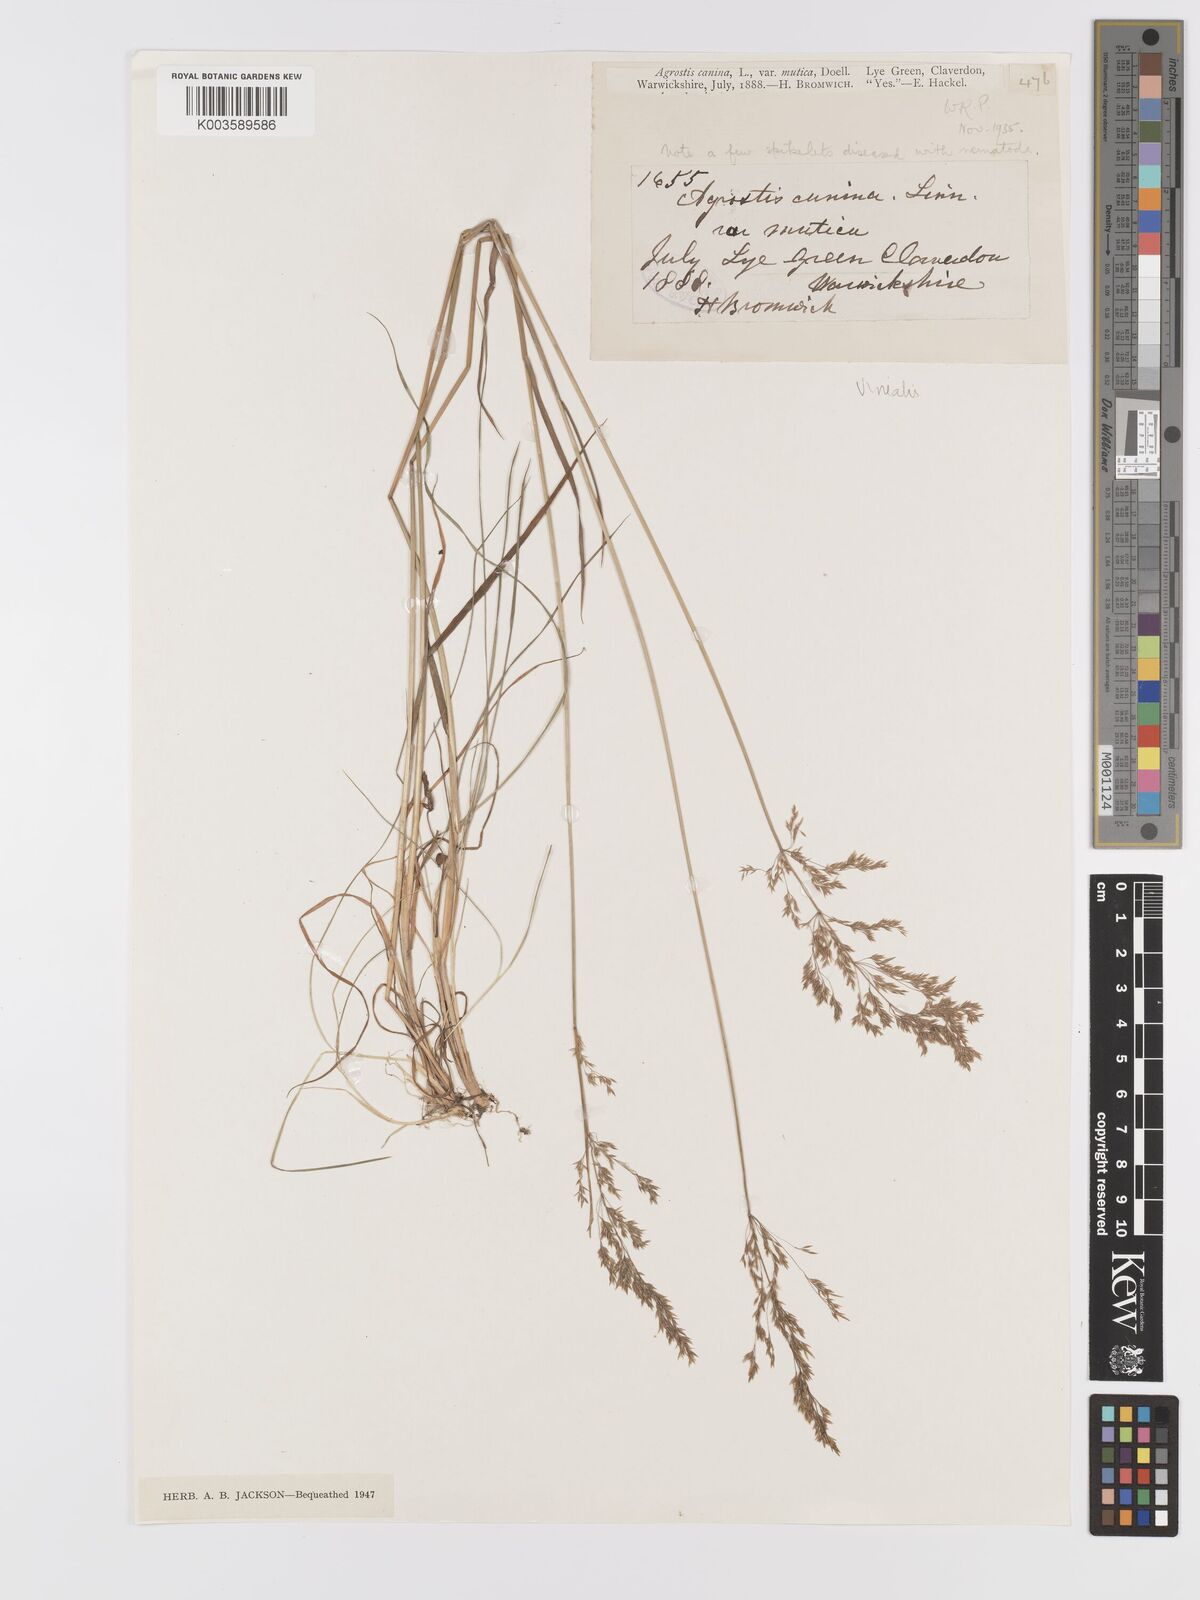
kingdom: Plantae
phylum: Tracheophyta
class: Liliopsida
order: Poales
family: Poaceae
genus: Agrostis
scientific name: Agrostis
